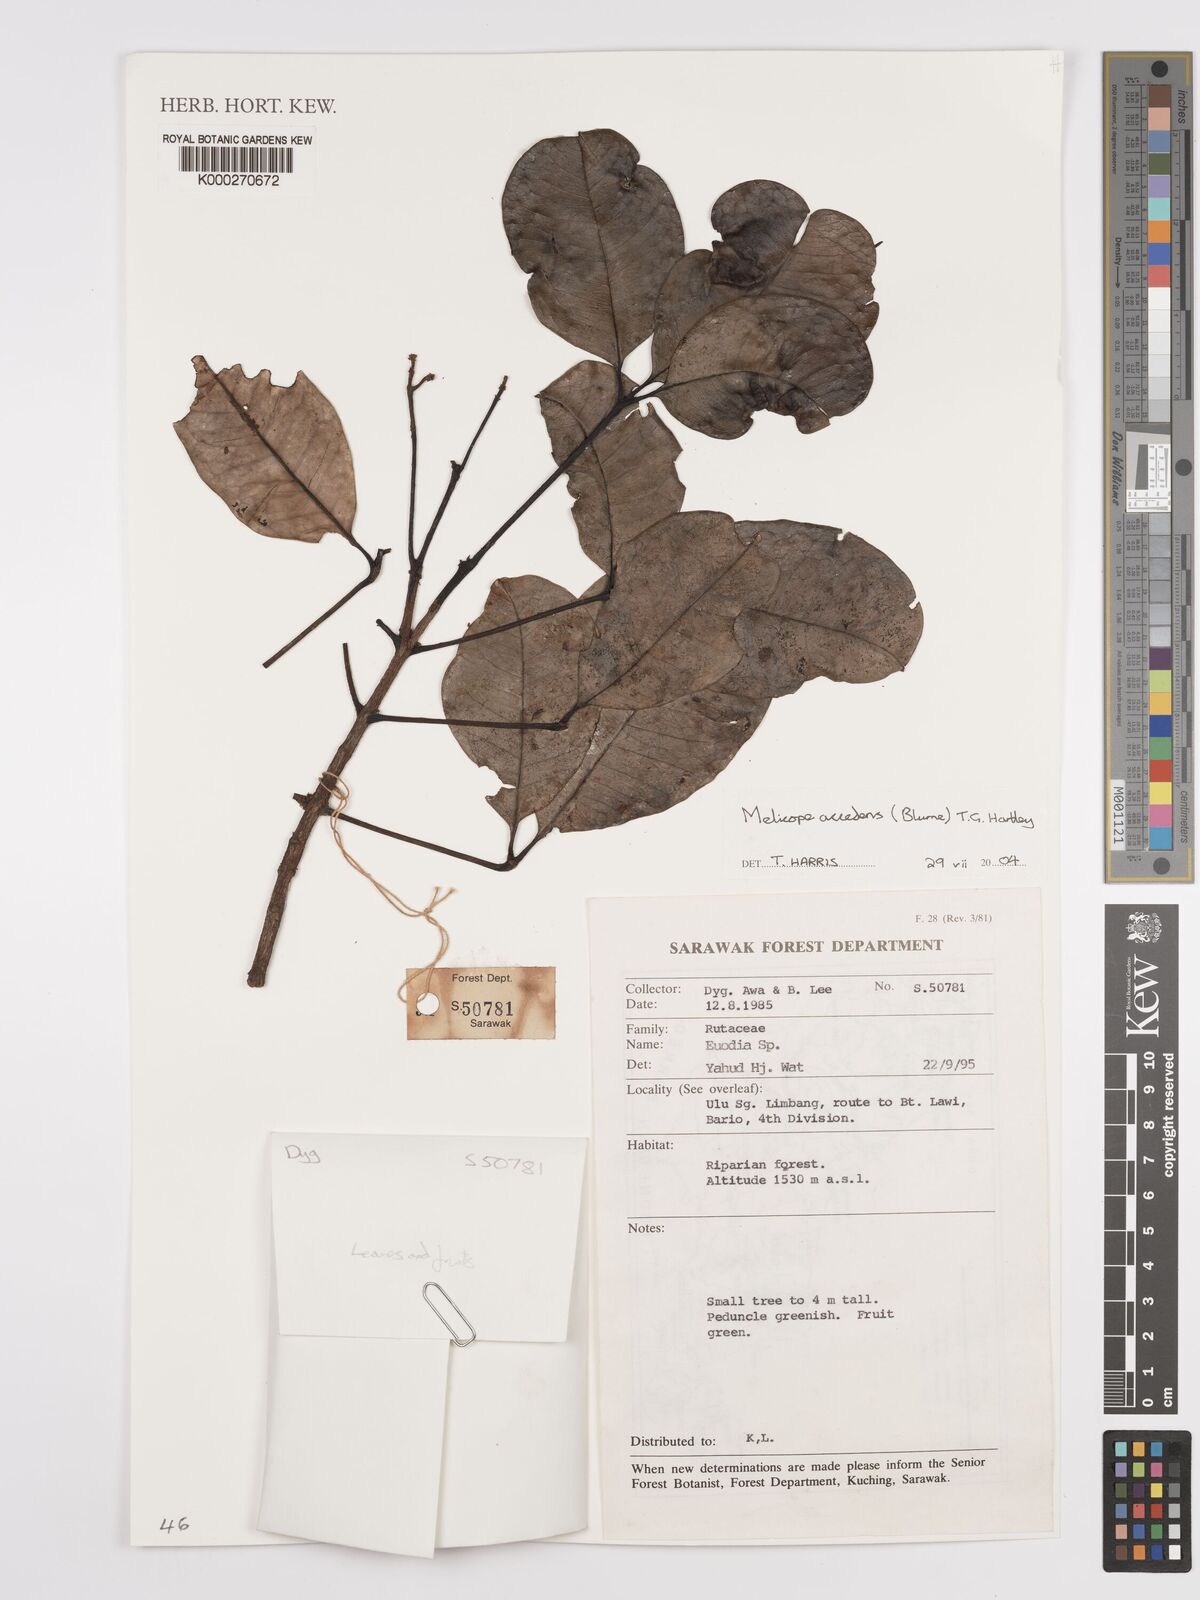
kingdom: Plantae
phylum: Tracheophyta
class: Magnoliopsida
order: Sapindales
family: Rutaceae
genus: Melicope
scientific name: Melicope accedens
